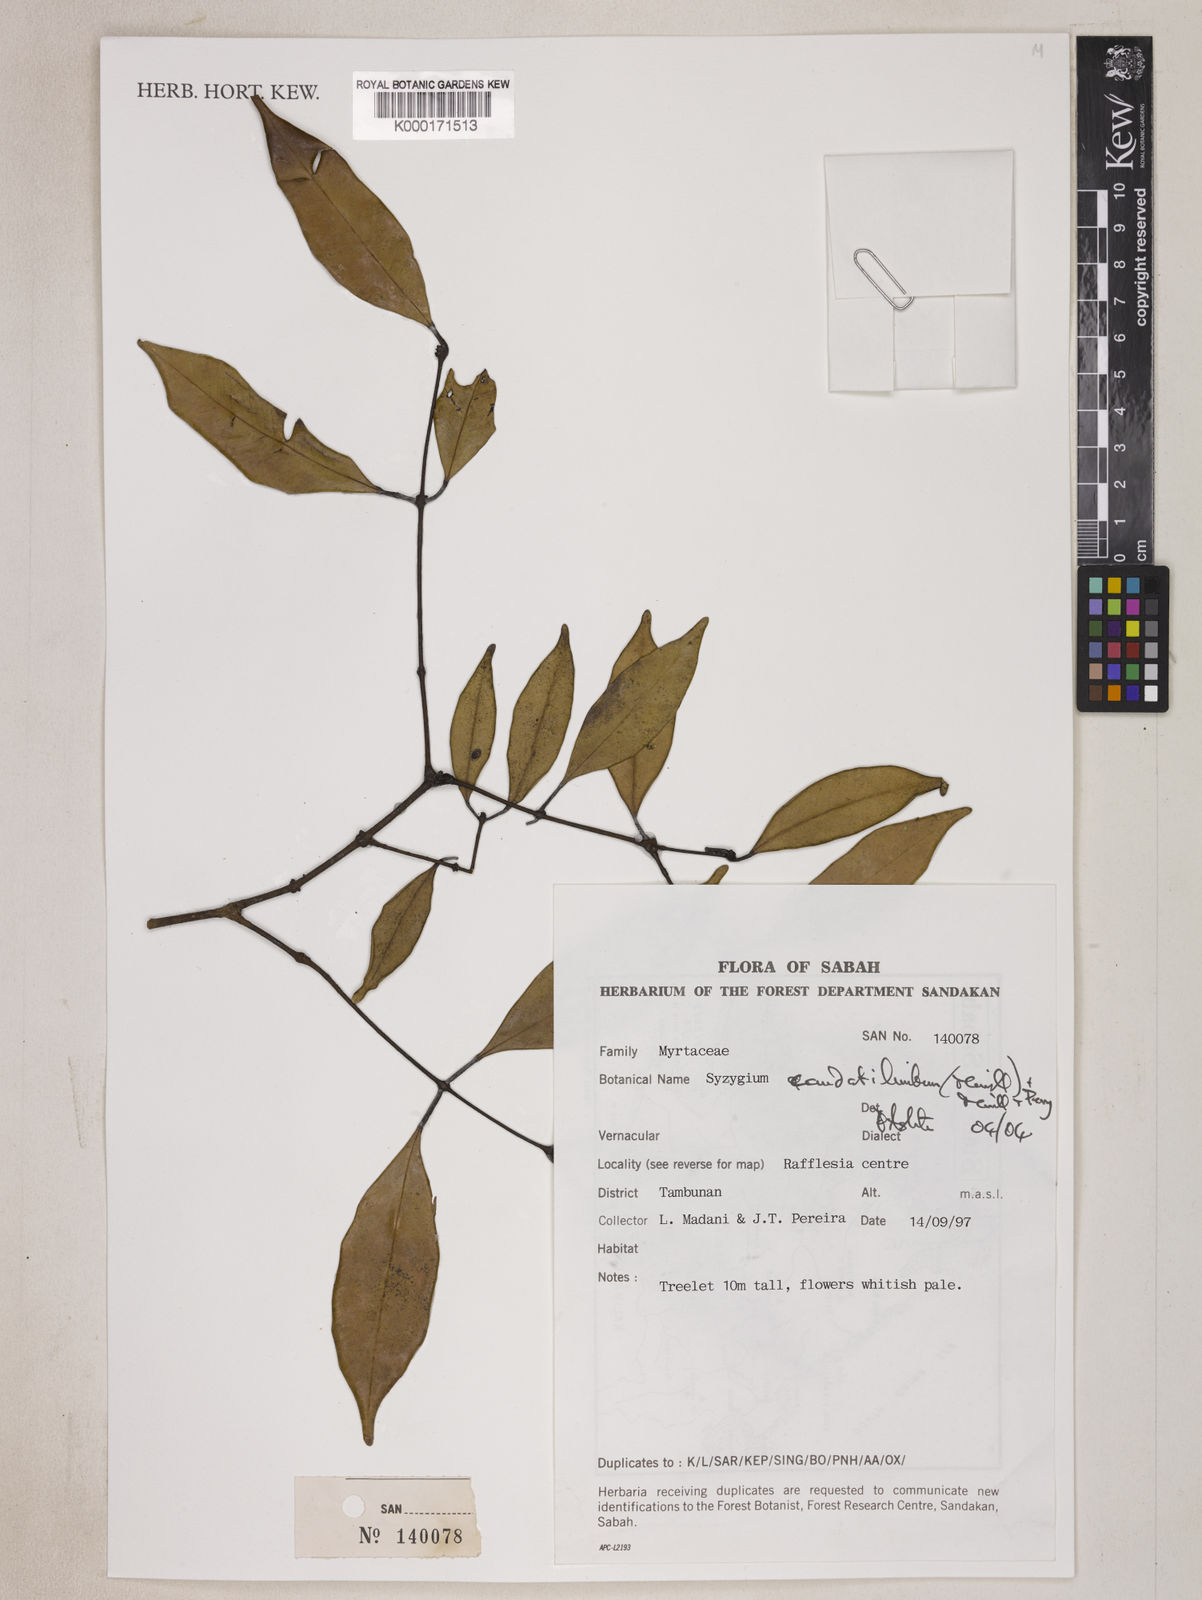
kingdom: Plantae
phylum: Tracheophyta
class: Magnoliopsida
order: Myrtales
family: Myrtaceae
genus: Syzygium
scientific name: Syzygium caudatilimbum
